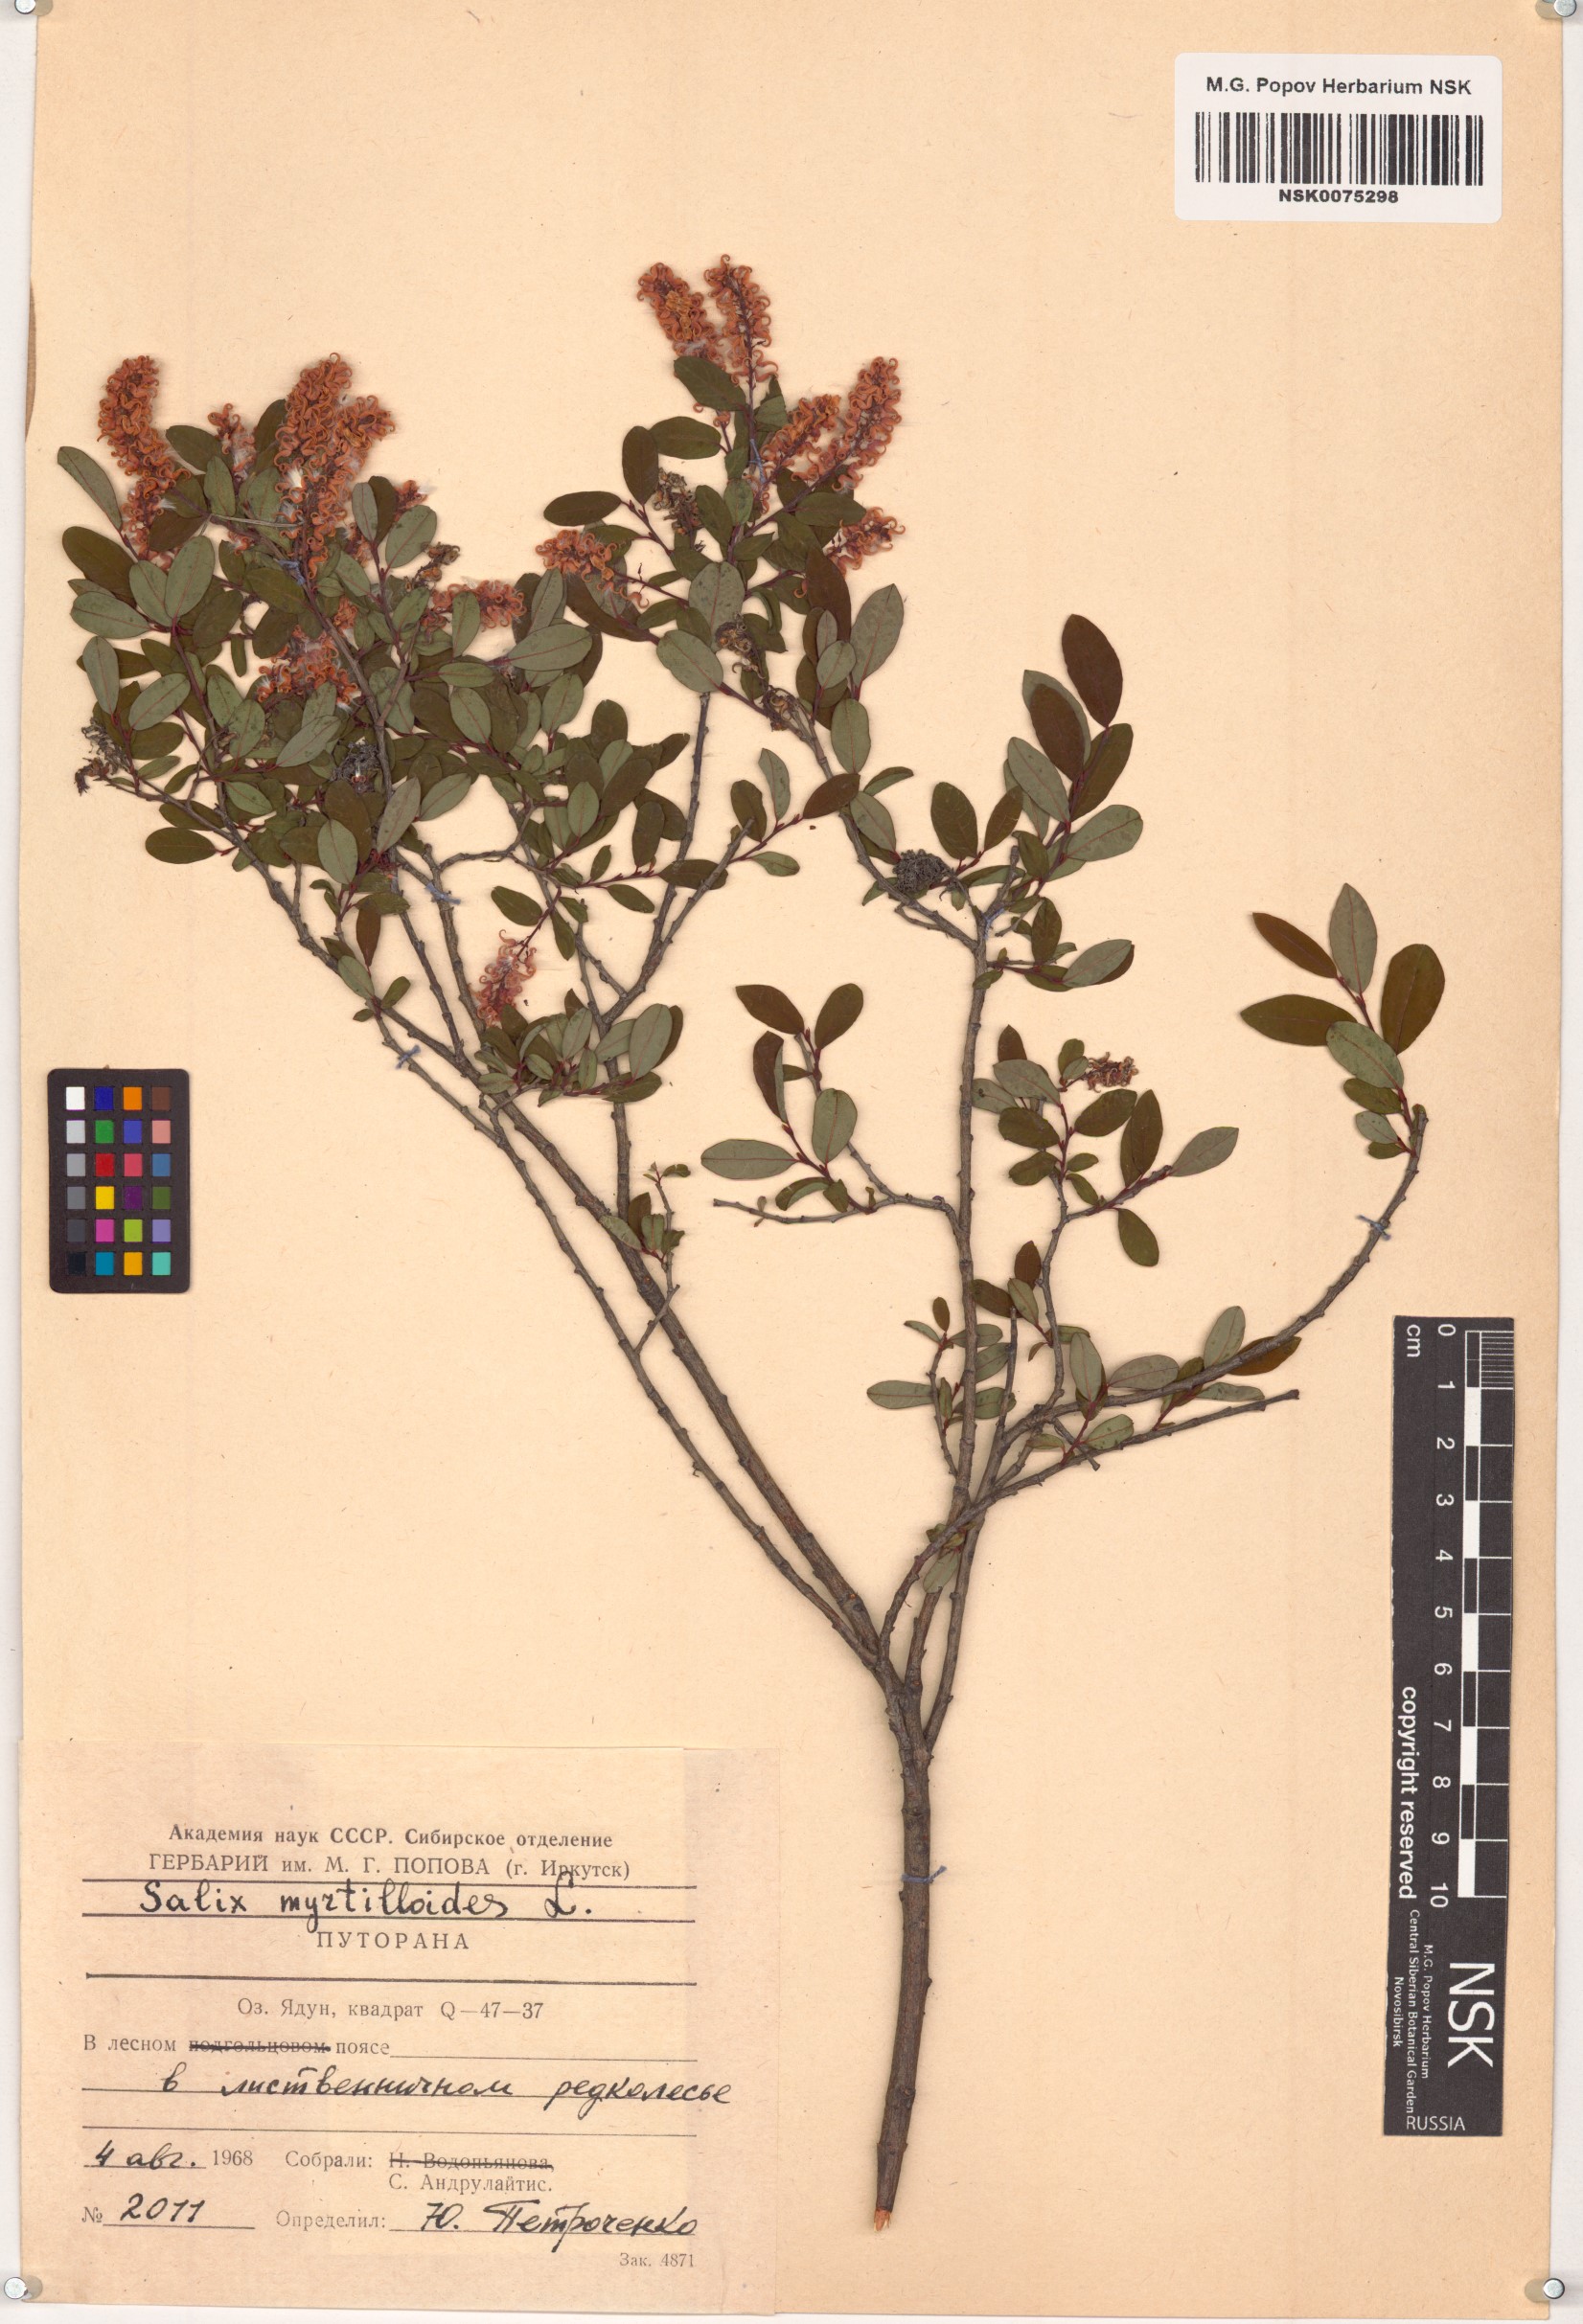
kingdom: Plantae
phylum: Tracheophyta
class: Magnoliopsida
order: Malpighiales
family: Salicaceae
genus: Salix
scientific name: Salix myrtilloides
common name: Myrtle-leaved willow
